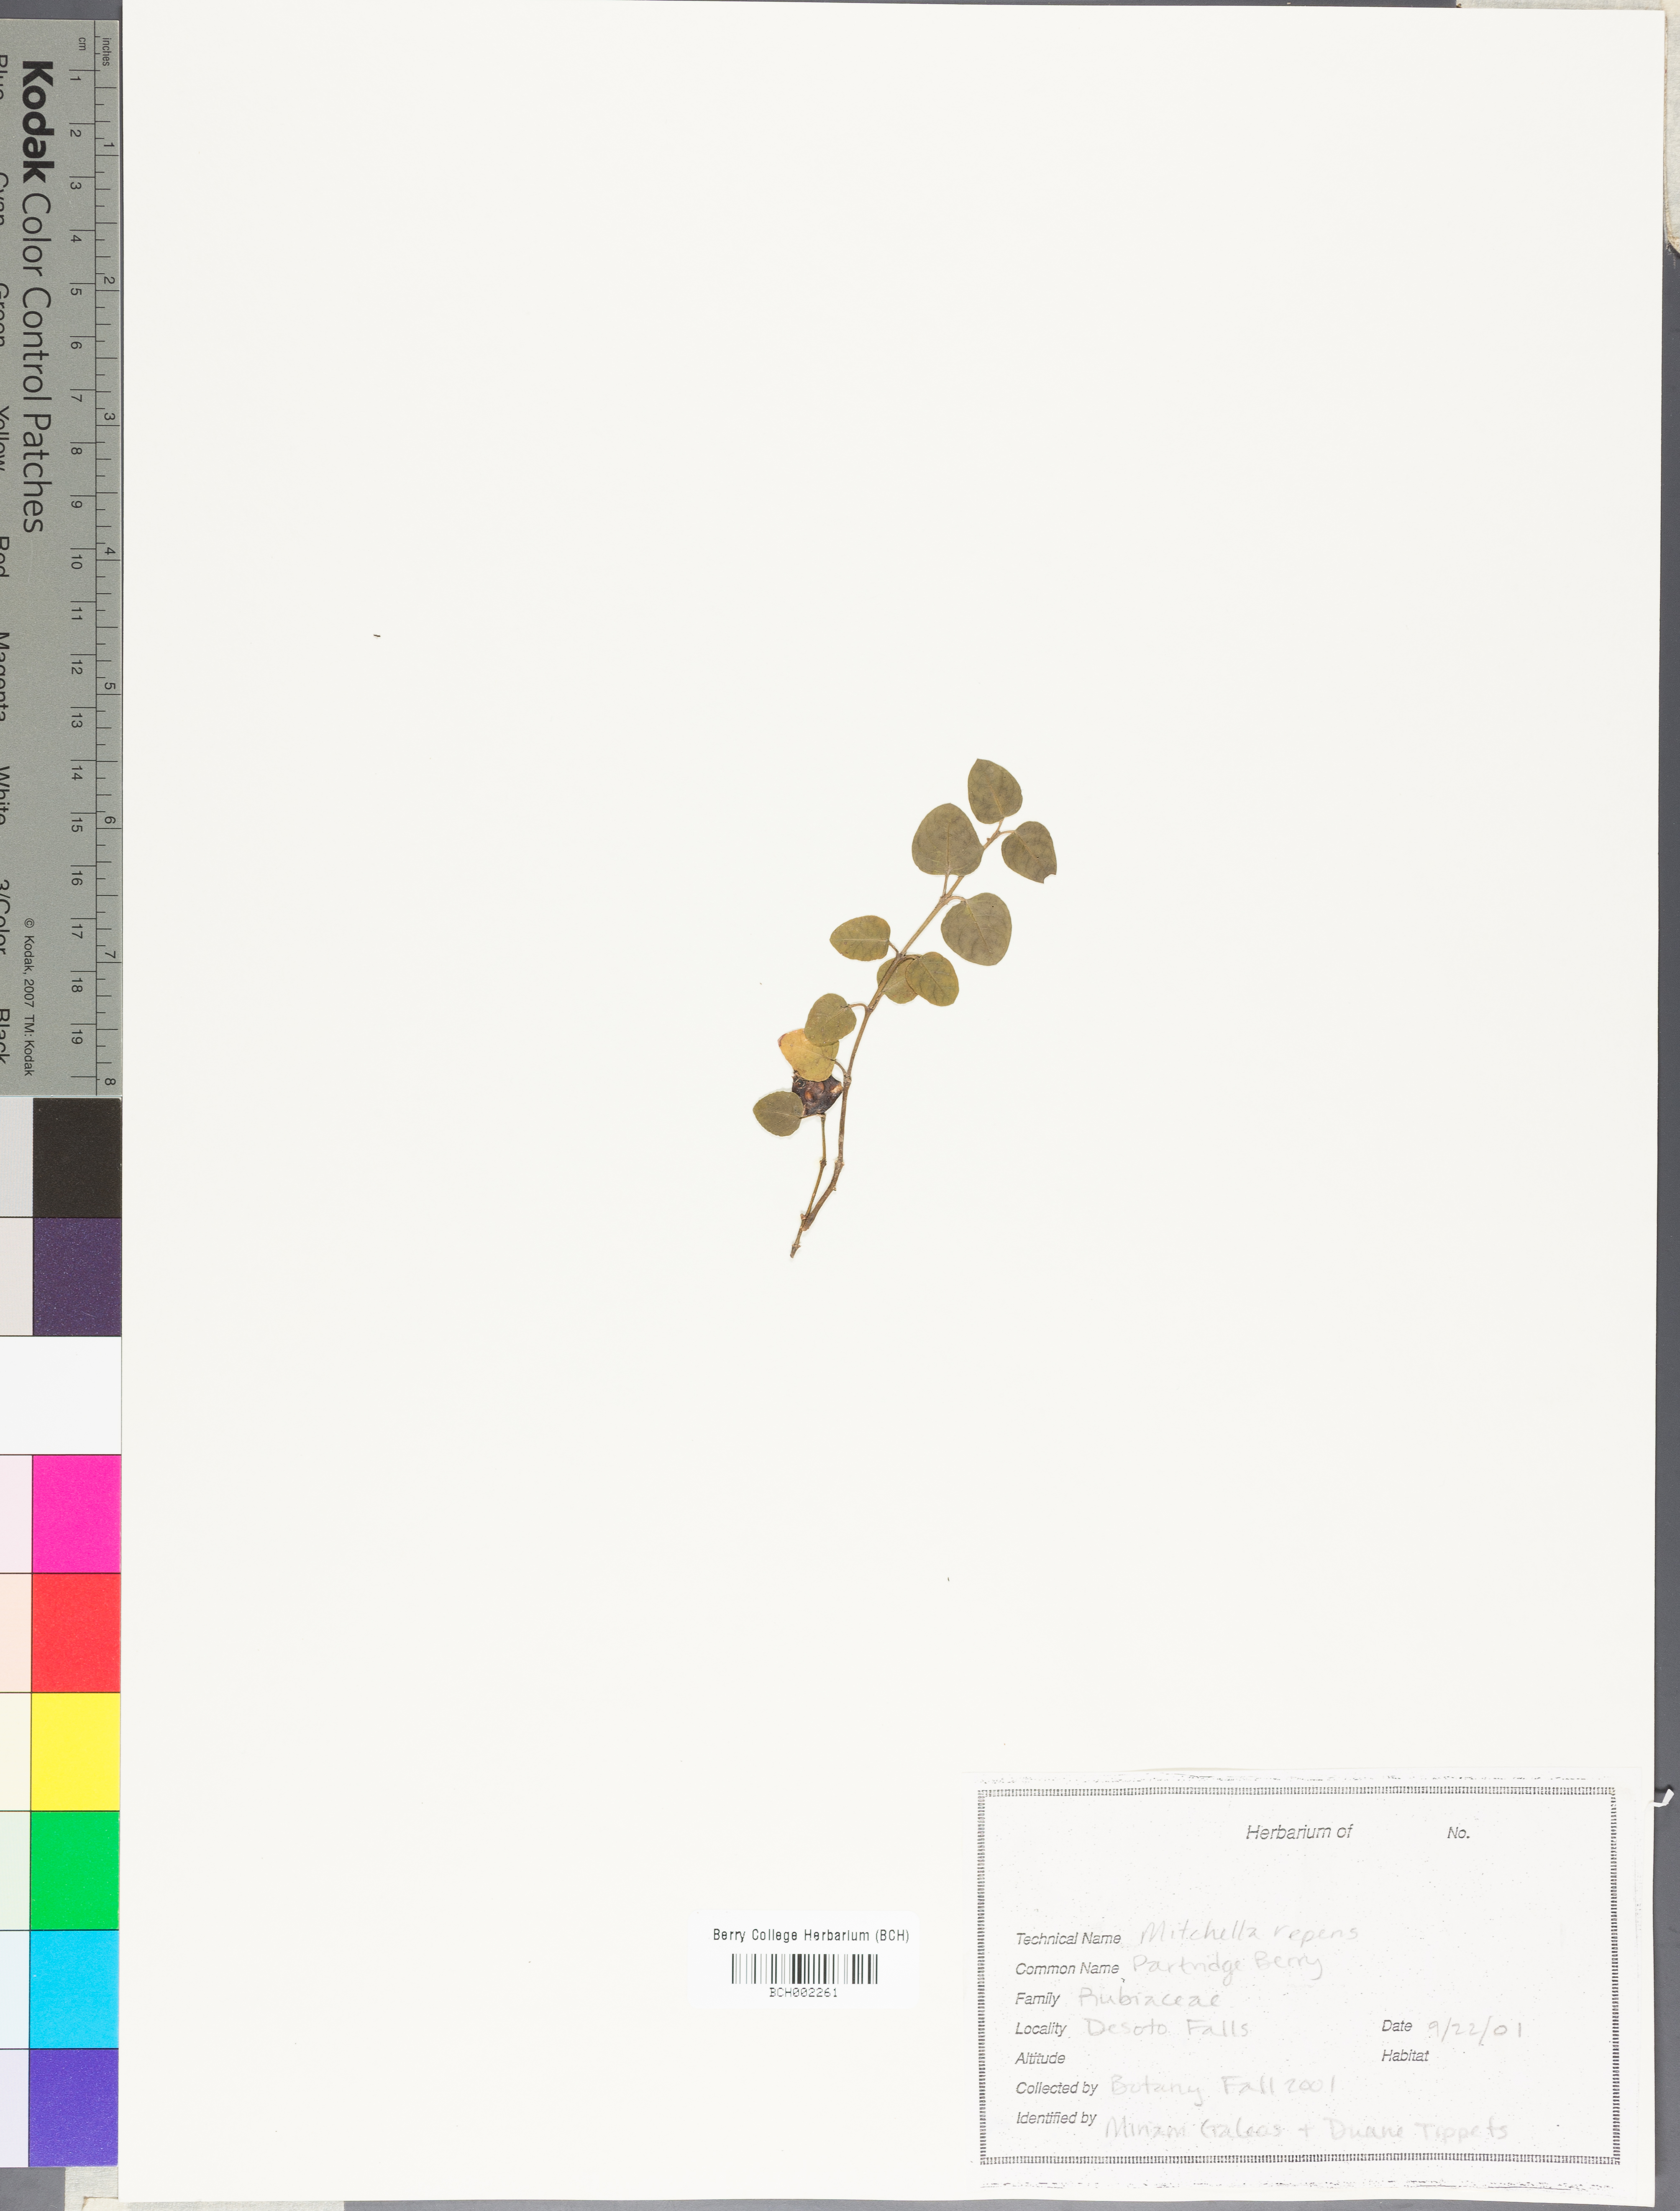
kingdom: Plantae
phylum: Tracheophyta
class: Magnoliopsida
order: Gentianales
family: Rubiaceae
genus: Mitchella
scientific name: Mitchella repens
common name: Partridge-berry
